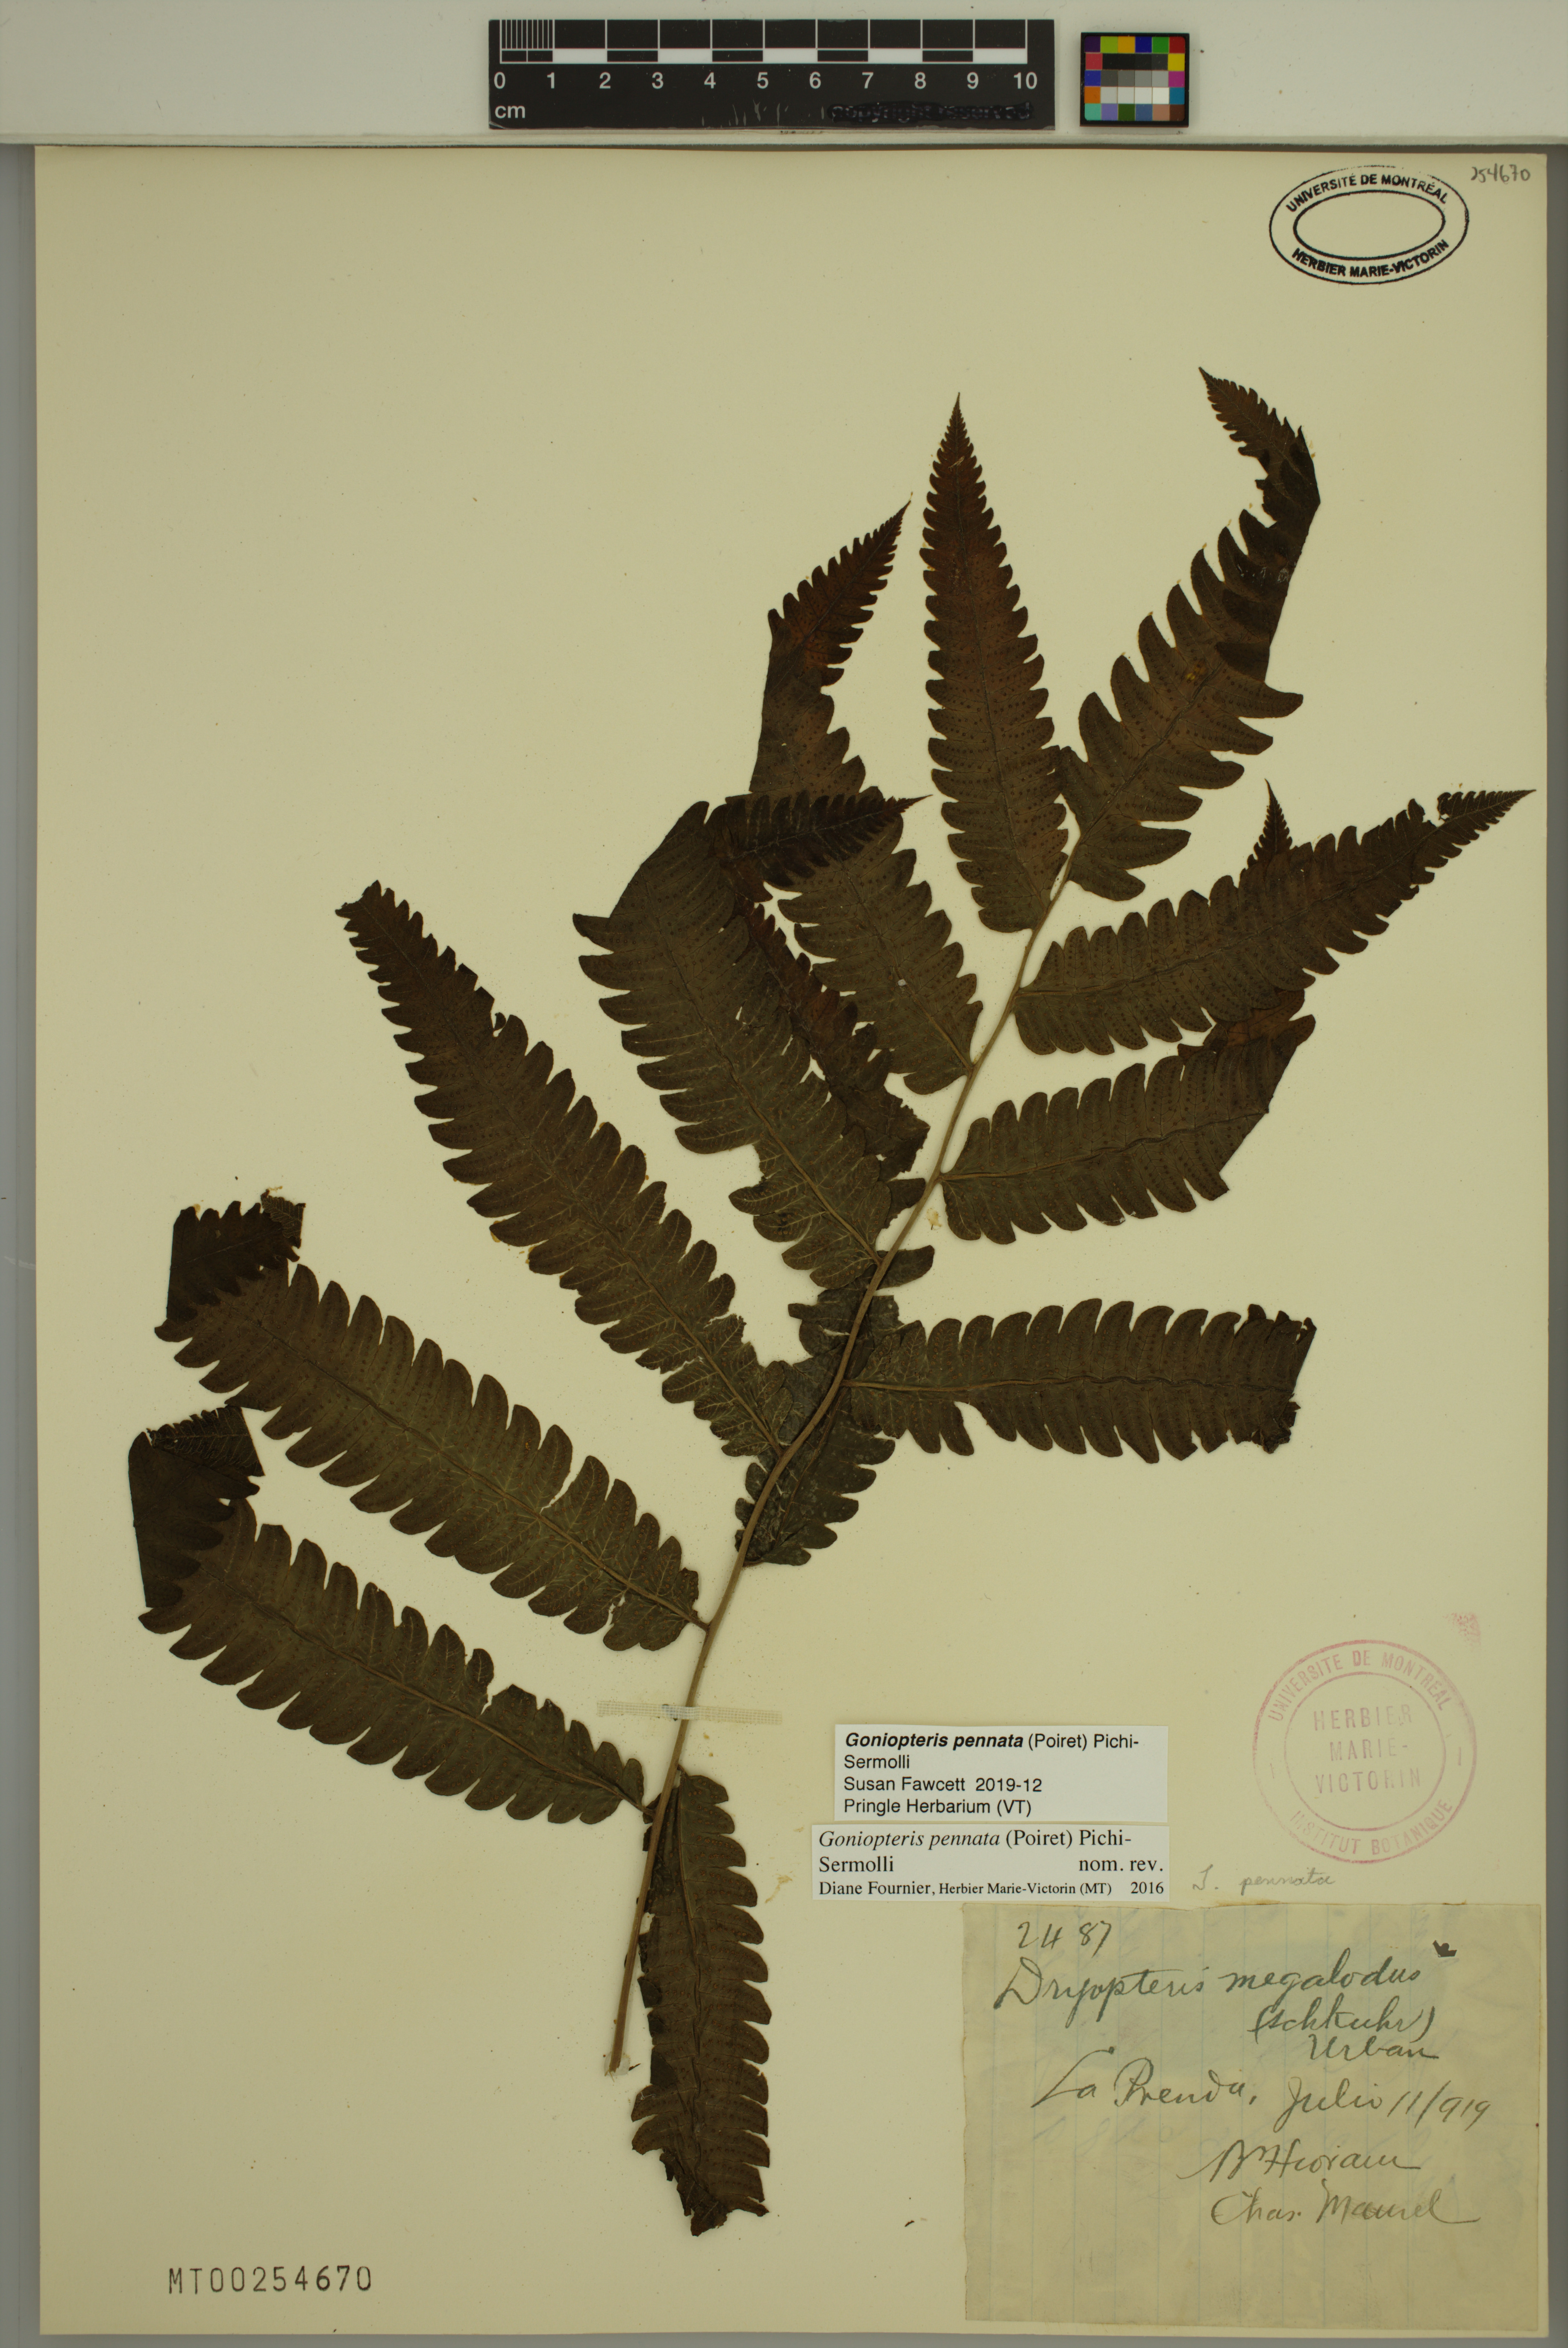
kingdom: Plantae
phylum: Tracheophyta
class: Polypodiopsida
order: Polypodiales
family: Thelypteridaceae
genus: Goniopteris
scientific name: Goniopteris pennata
